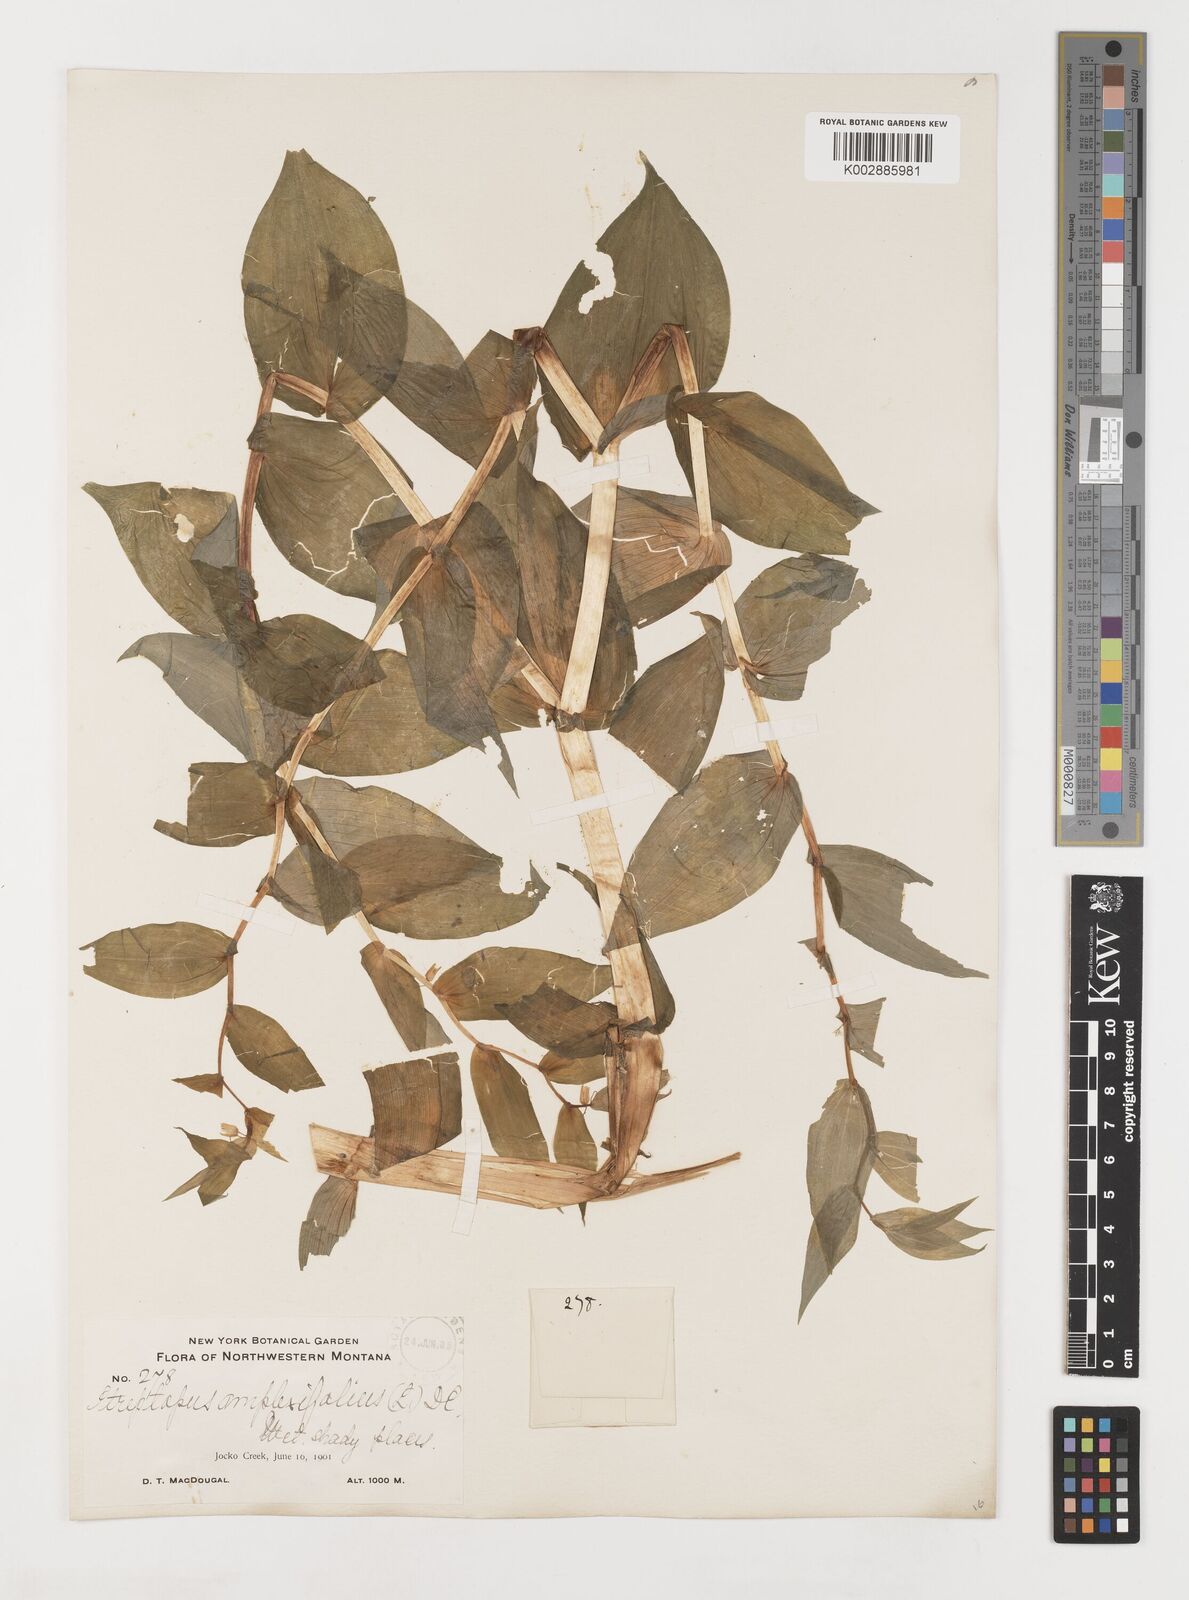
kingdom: Plantae
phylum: Tracheophyta
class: Liliopsida
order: Liliales
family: Liliaceae
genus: Streptopus
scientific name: Streptopus amplexifolius
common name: Clasp twisted stalk
